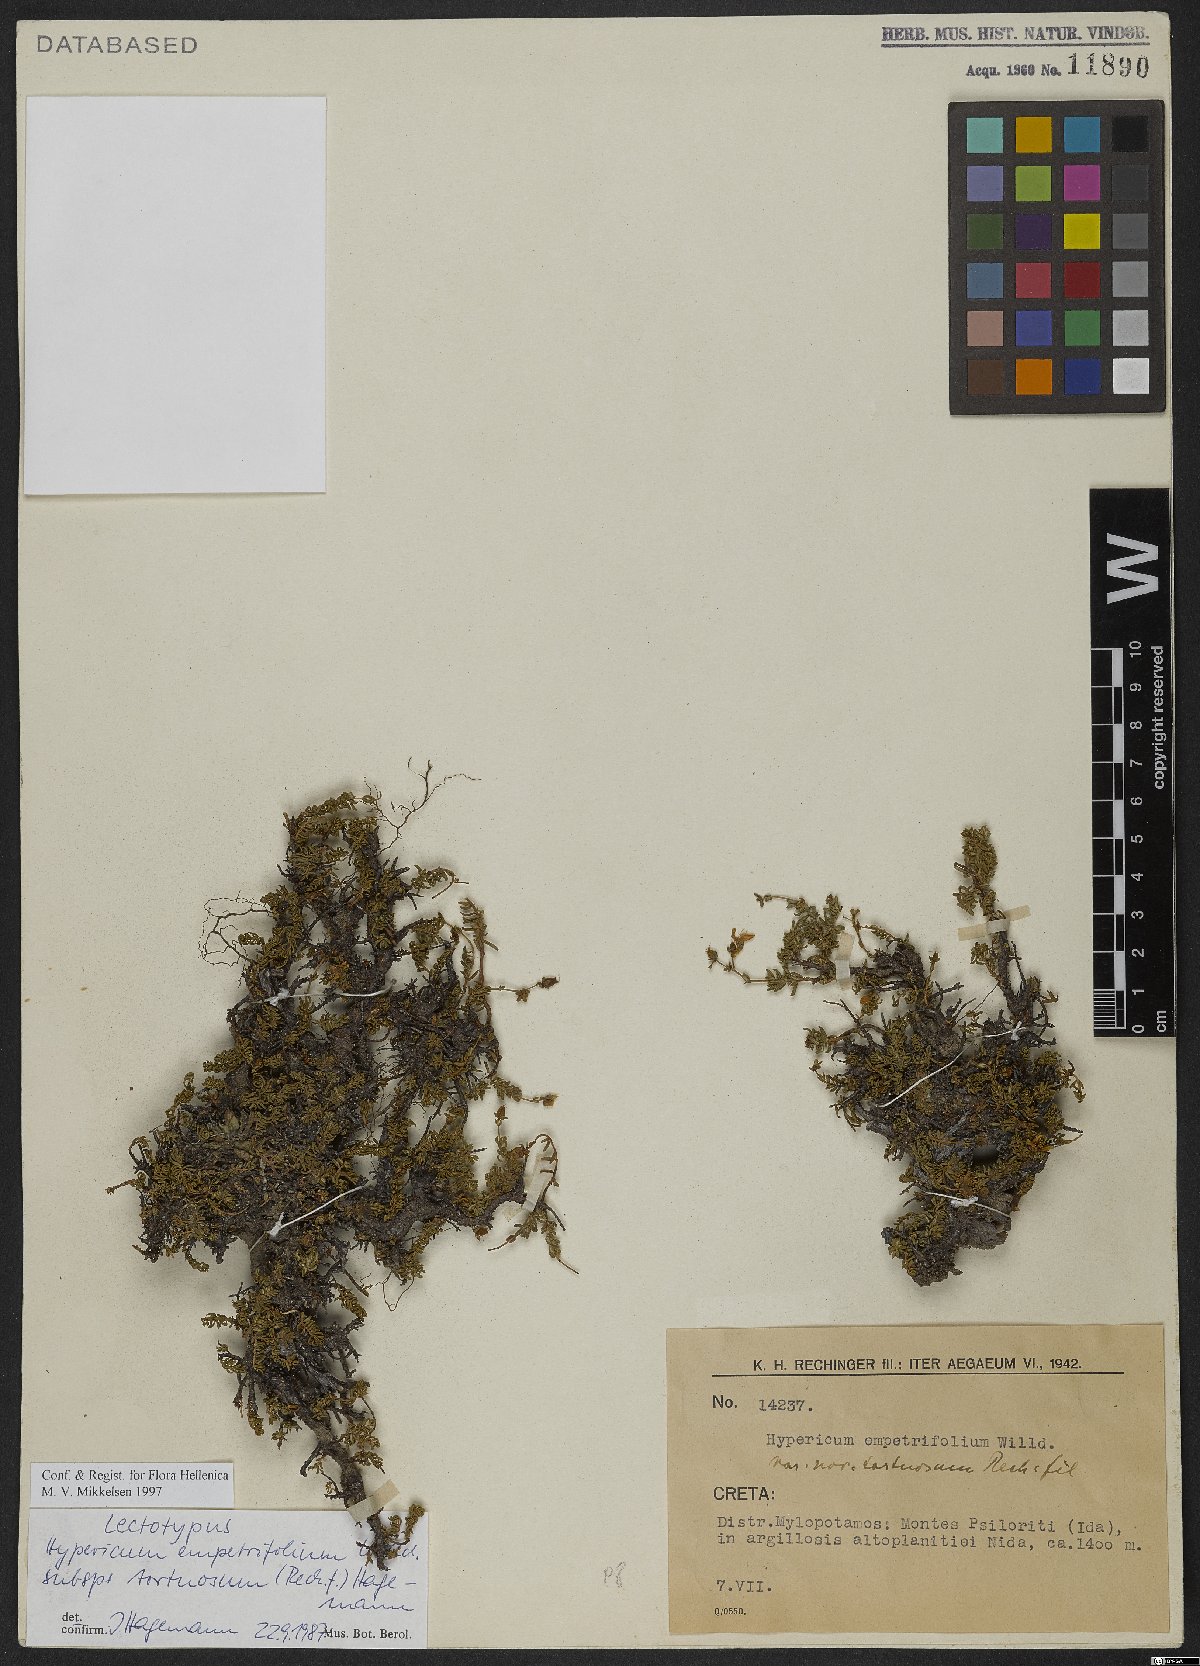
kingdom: Plantae
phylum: Tracheophyta
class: Magnoliopsida
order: Malpighiales
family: Hypericaceae
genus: Hypericum
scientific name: Hypericum empetrifolium
